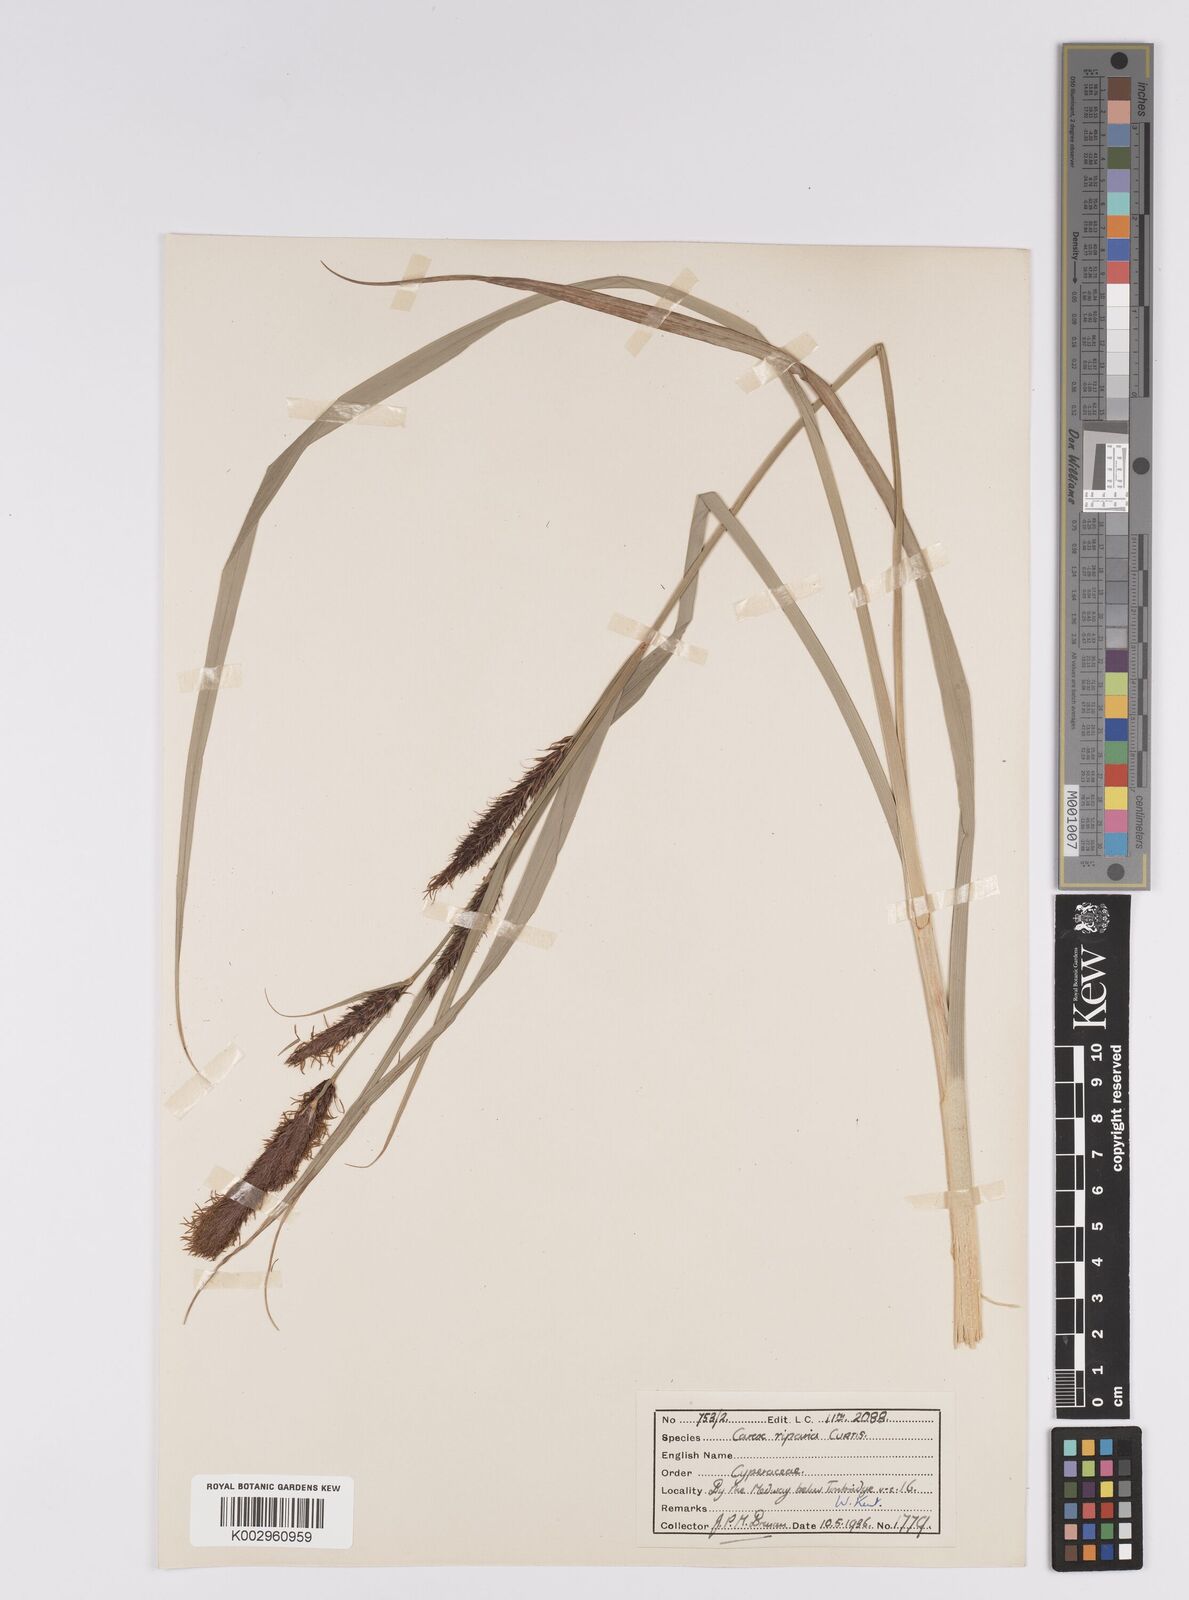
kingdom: Plantae
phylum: Tracheophyta
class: Liliopsida
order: Poales
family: Cyperaceae
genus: Carex
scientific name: Carex riparia
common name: Greater pond-sedge
